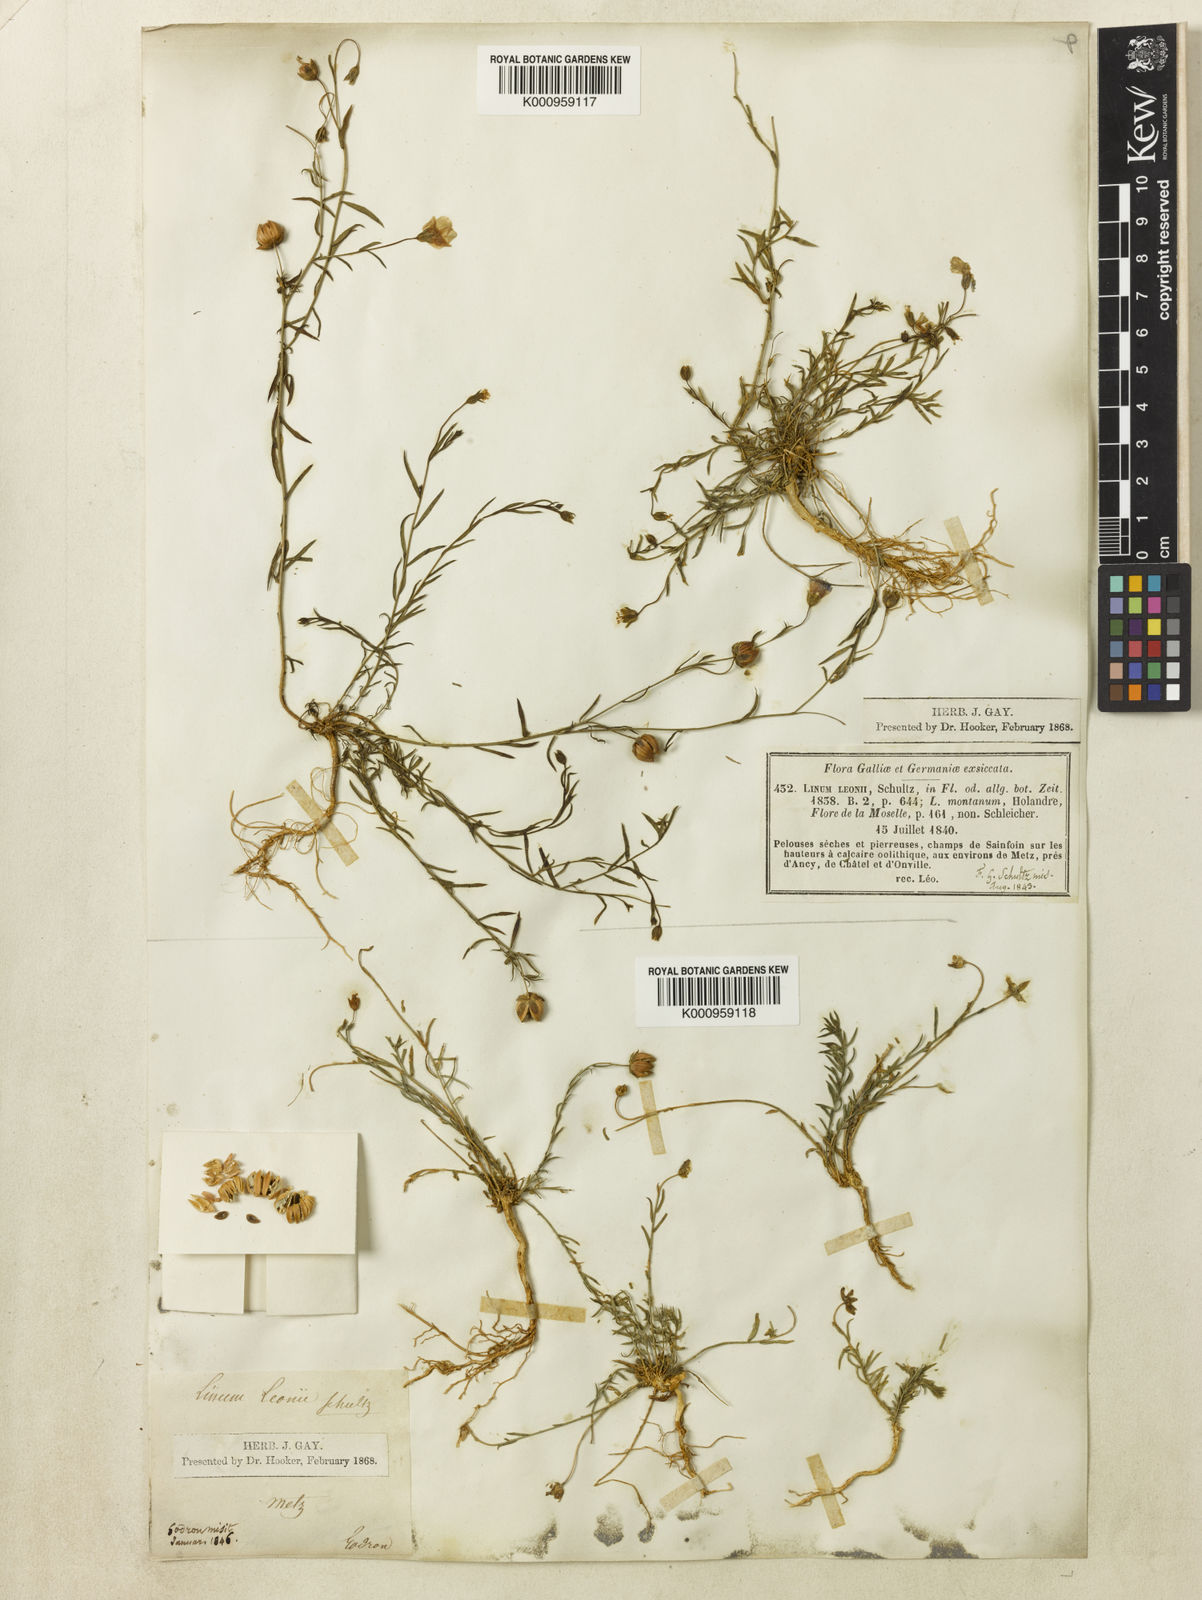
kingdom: Plantae
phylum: Tracheophyta
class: Magnoliopsida
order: Malpighiales
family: Linaceae
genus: Linum
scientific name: Linum
